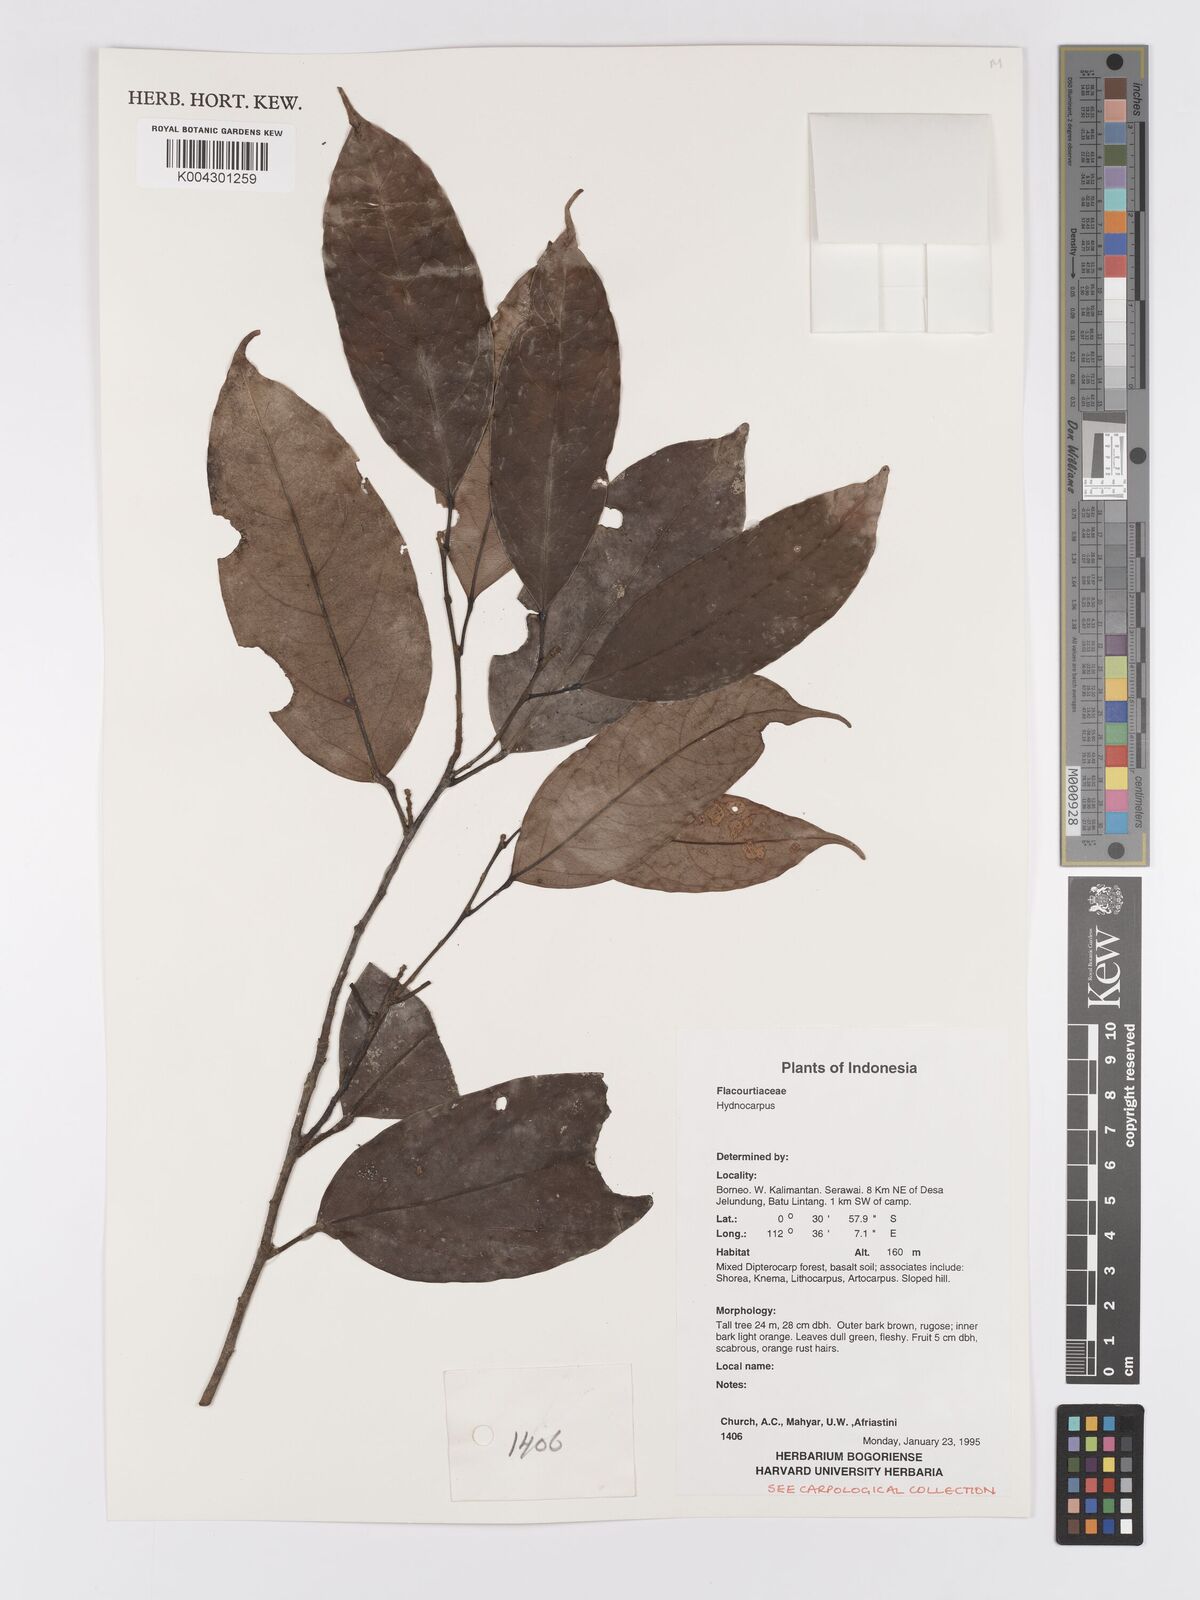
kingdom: Plantae
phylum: Tracheophyta
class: Magnoliopsida
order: Malpighiales
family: Achariaceae
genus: Hydnocarpus
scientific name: Hydnocarpus
